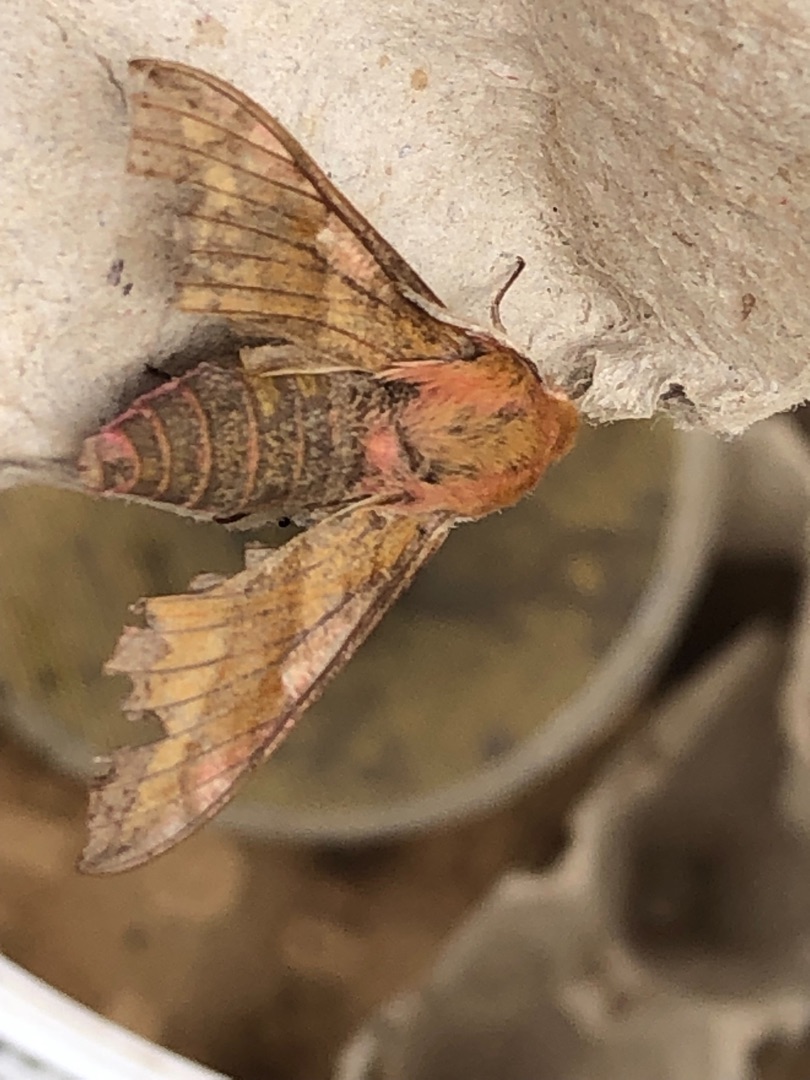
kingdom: Animalia
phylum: Arthropoda
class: Insecta
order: Lepidoptera
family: Sphingidae
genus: Deilephila
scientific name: Deilephila porcellus
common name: Lille vinsværmer
